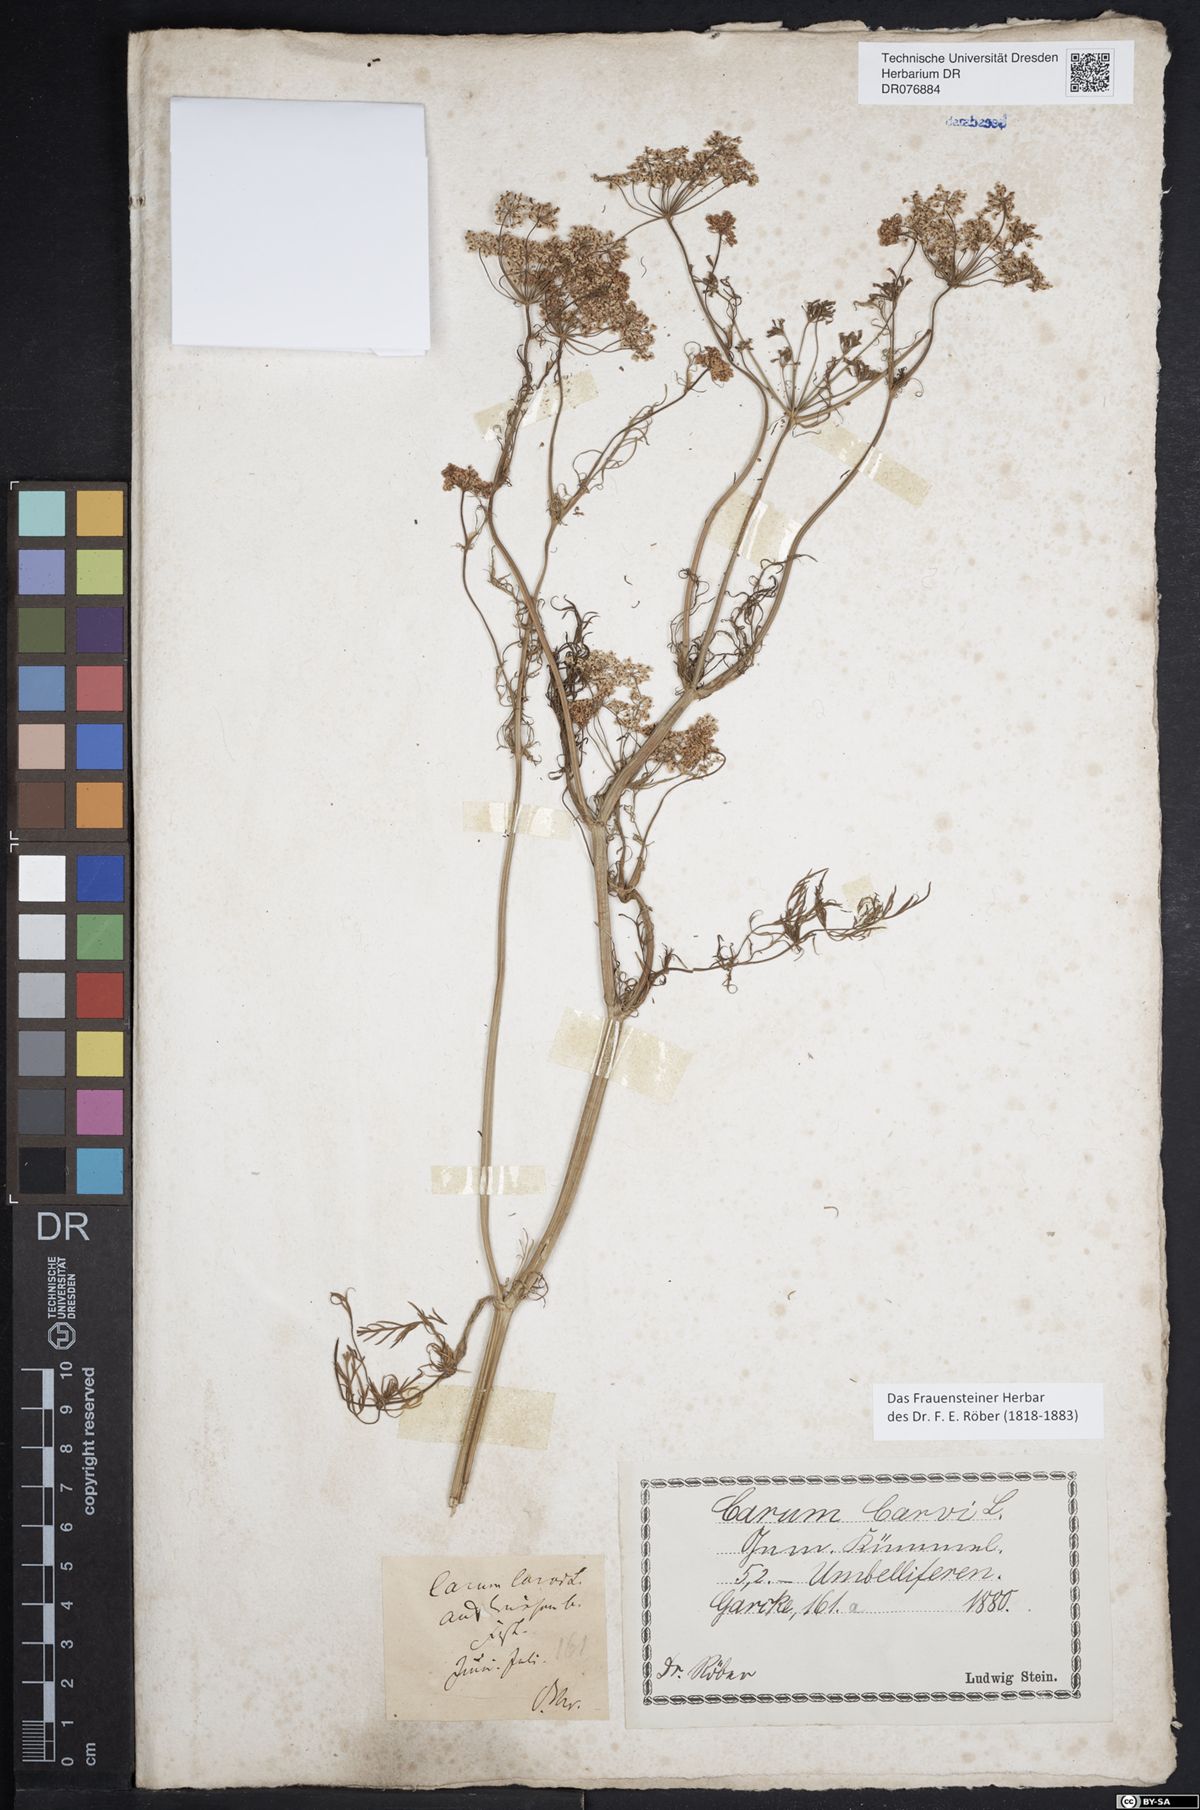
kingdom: Plantae
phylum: Tracheophyta
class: Magnoliopsida
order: Apiales
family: Apiaceae
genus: Carum
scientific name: Carum carvi
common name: Caraway
